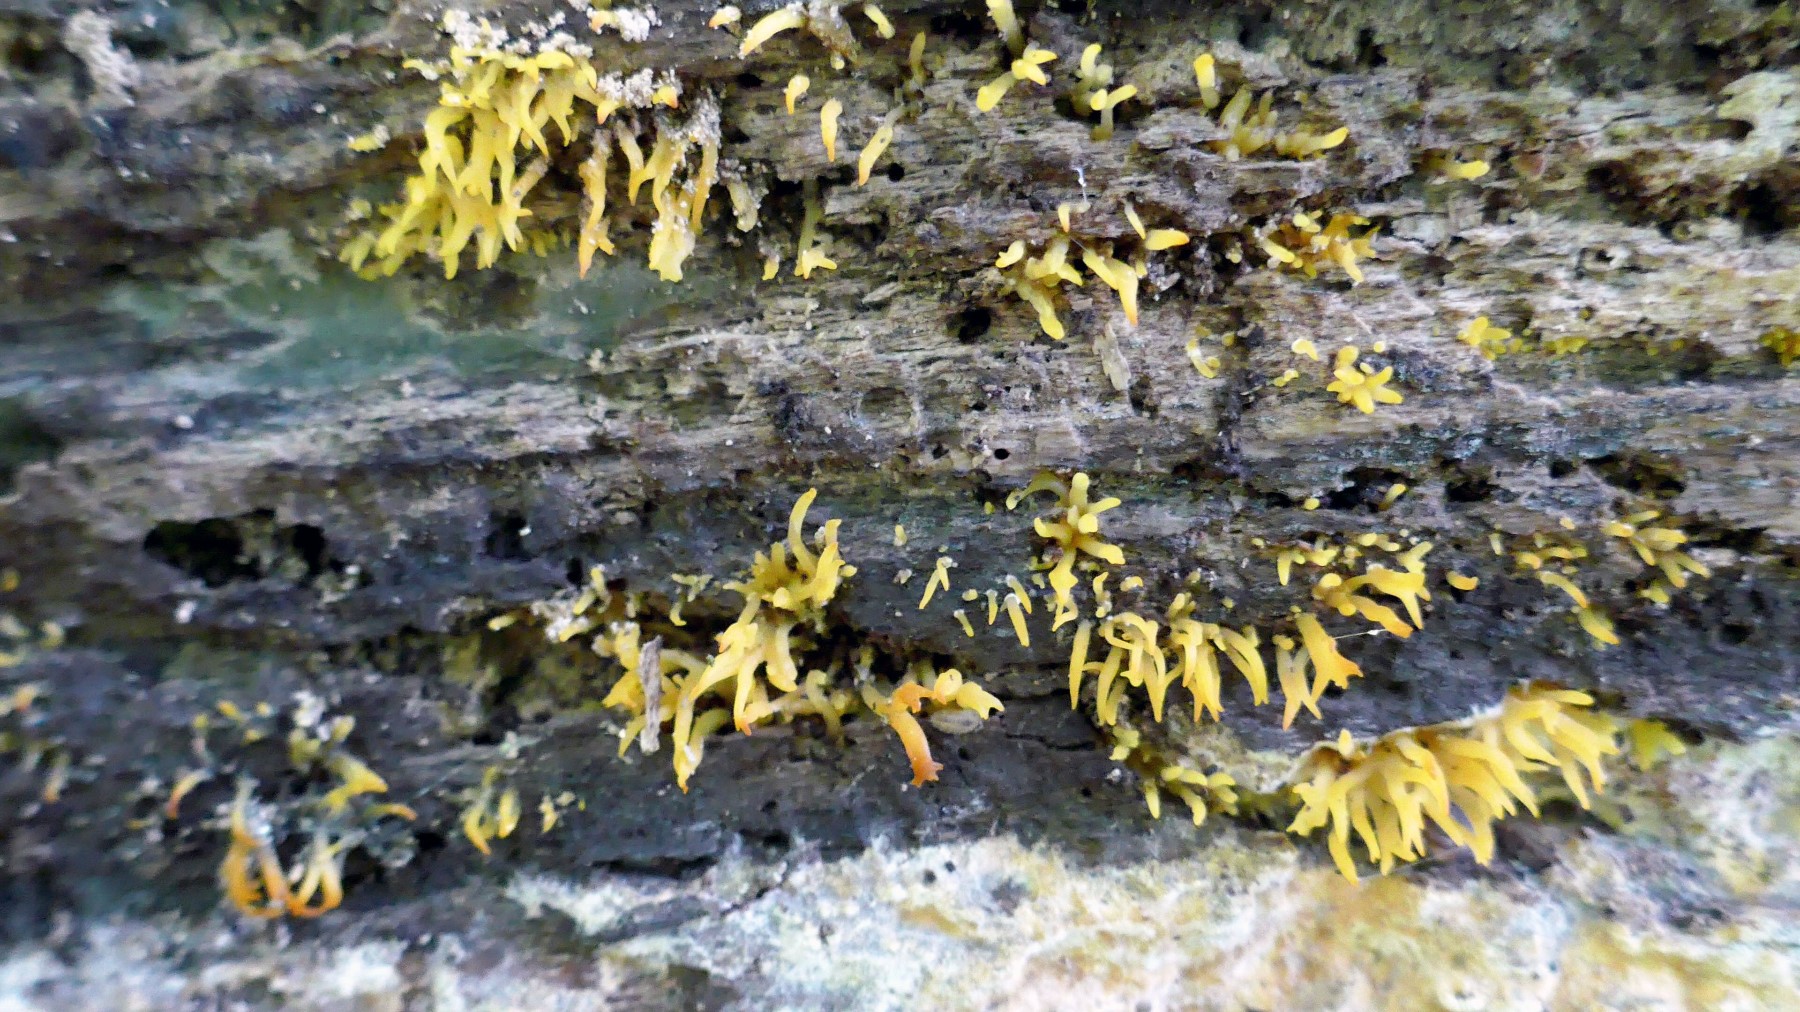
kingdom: Fungi
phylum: Basidiomycota
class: Dacrymycetes
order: Dacrymycetales
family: Dacrymycetaceae
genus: Calocera
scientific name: Calocera cornea
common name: liden guldgaffel
